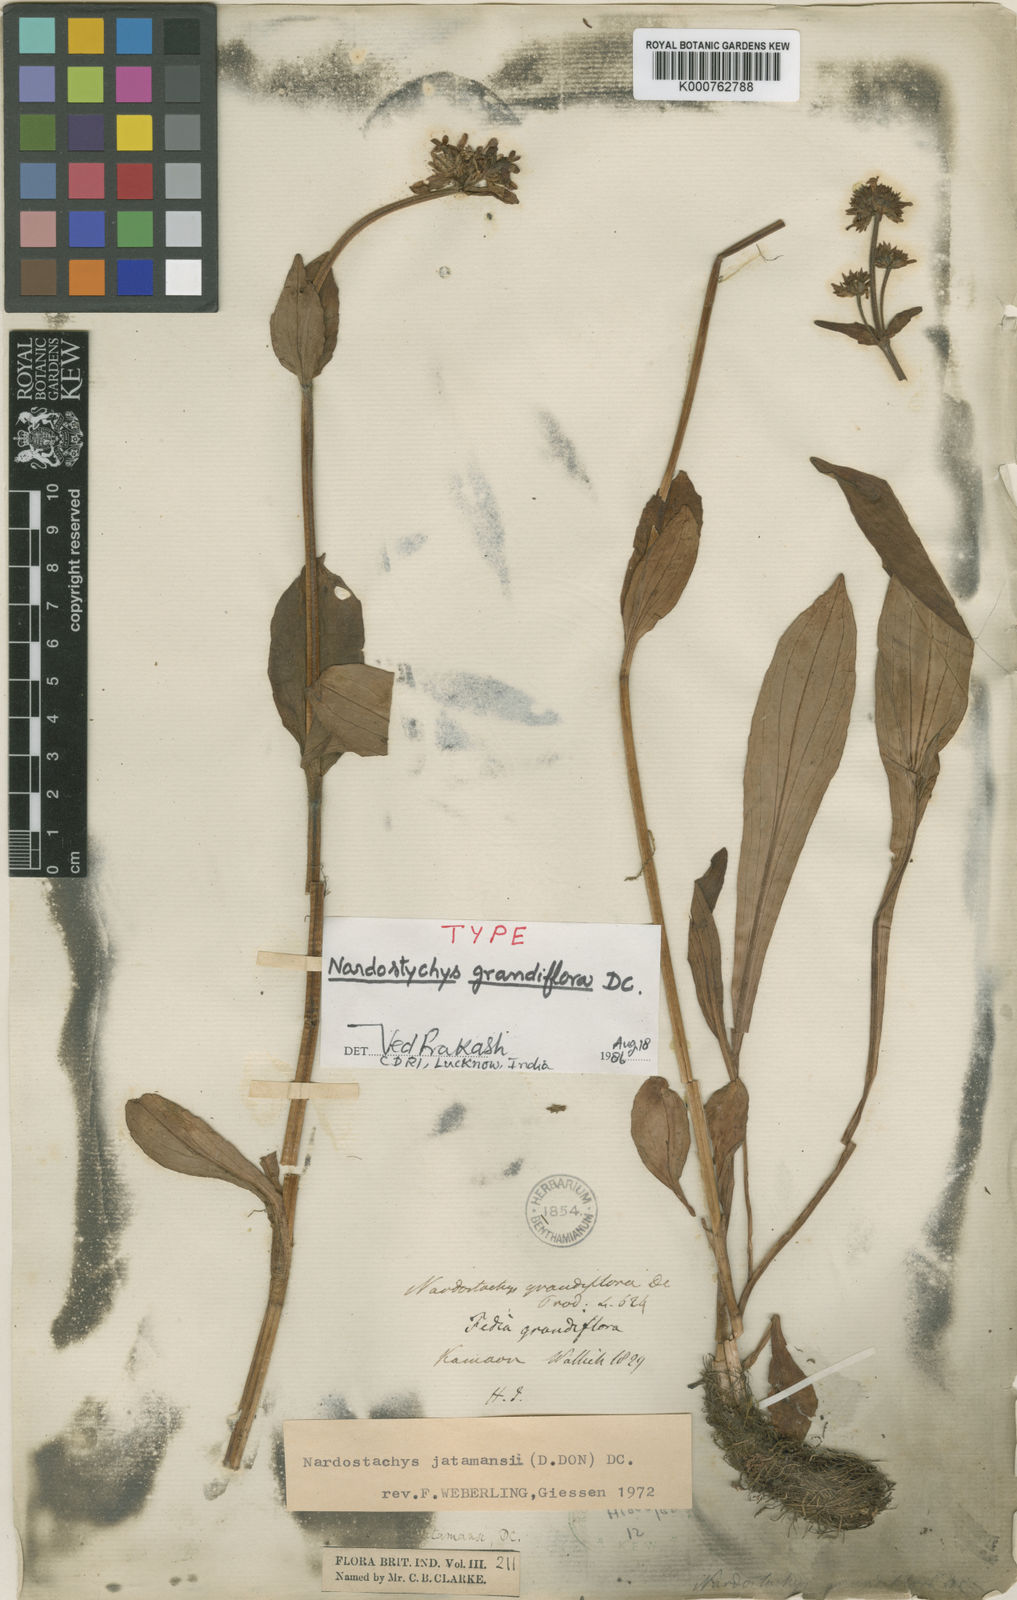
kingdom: Plantae
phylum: Tracheophyta
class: Magnoliopsida
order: Dipsacales
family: Caprifoliaceae
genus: Nardostachys
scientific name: Nardostachys jatamansi
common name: Indian nard
